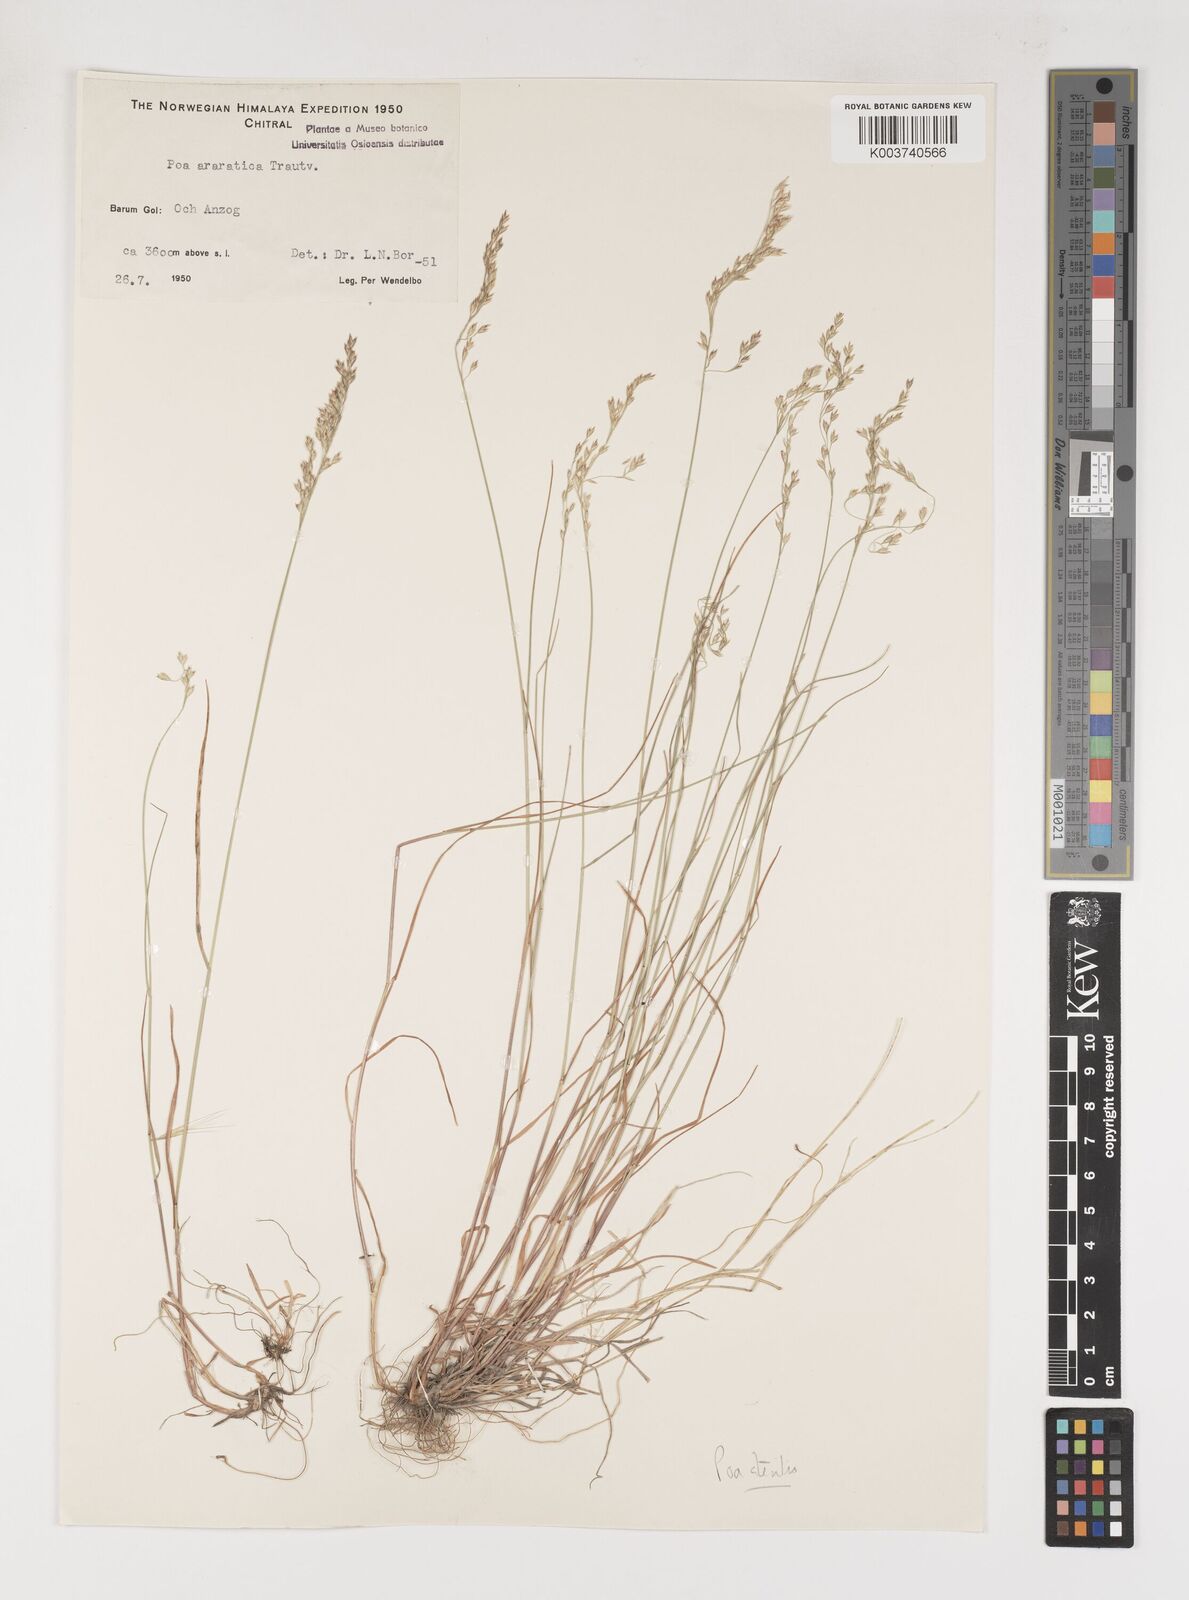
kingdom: Plantae
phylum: Tracheophyta
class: Liliopsida
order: Poales
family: Poaceae
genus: Poa
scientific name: Poa sterilis
